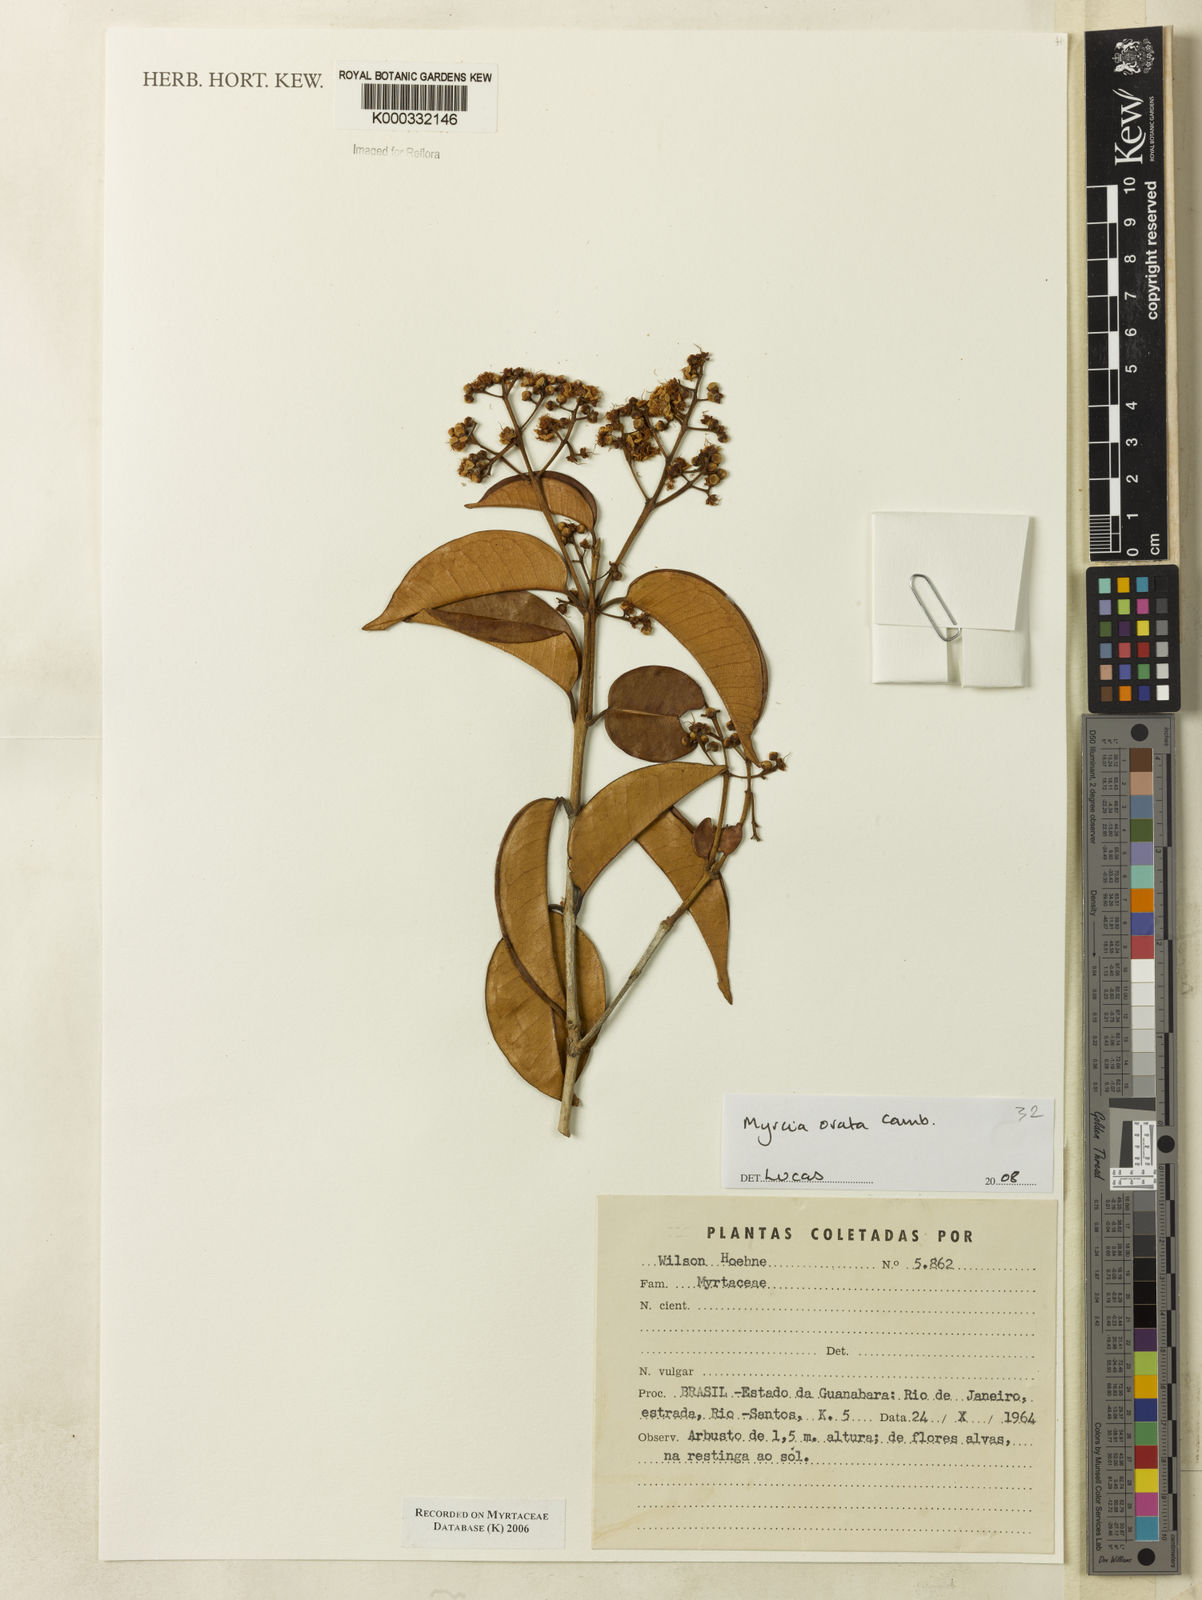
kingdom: Plantae
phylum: Tracheophyta
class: Magnoliopsida
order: Myrtales
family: Myrtaceae
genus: Myrcia
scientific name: Myrcia
